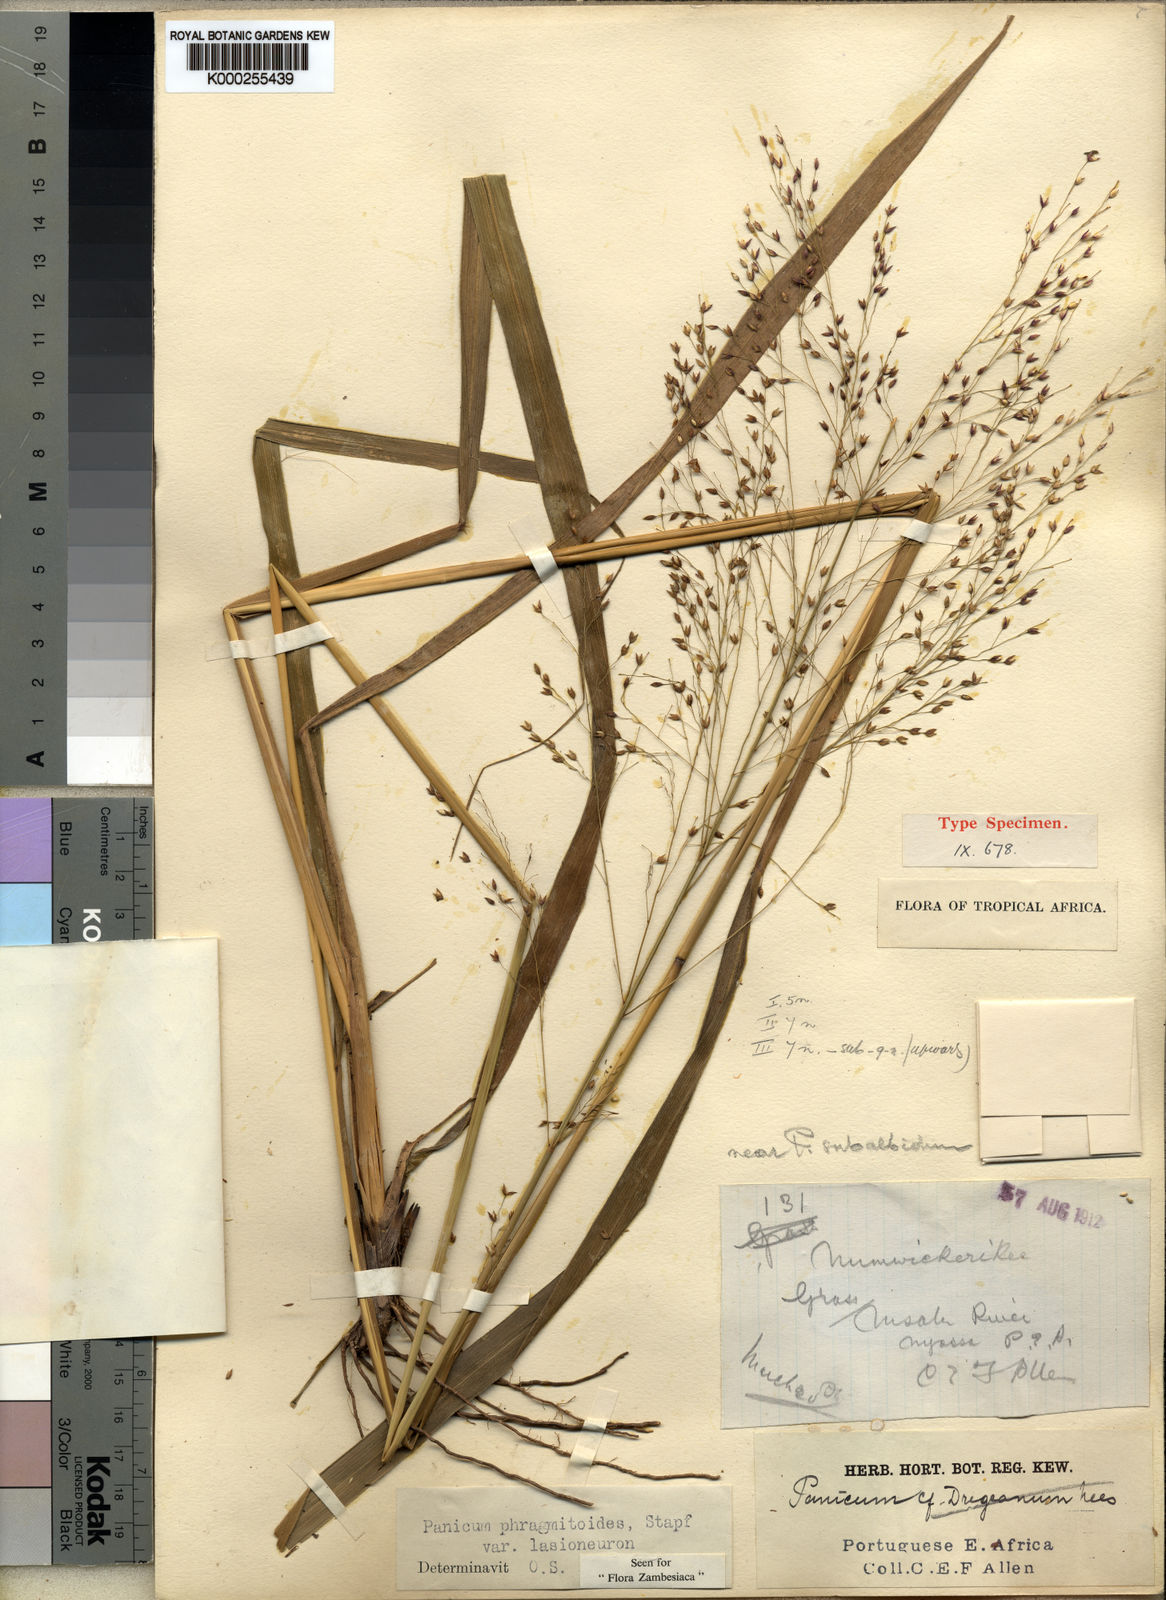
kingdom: Plantae
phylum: Tracheophyta
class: Liliopsida
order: Poales
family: Poaceae
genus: Panicum
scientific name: Panicum phragmitoides
